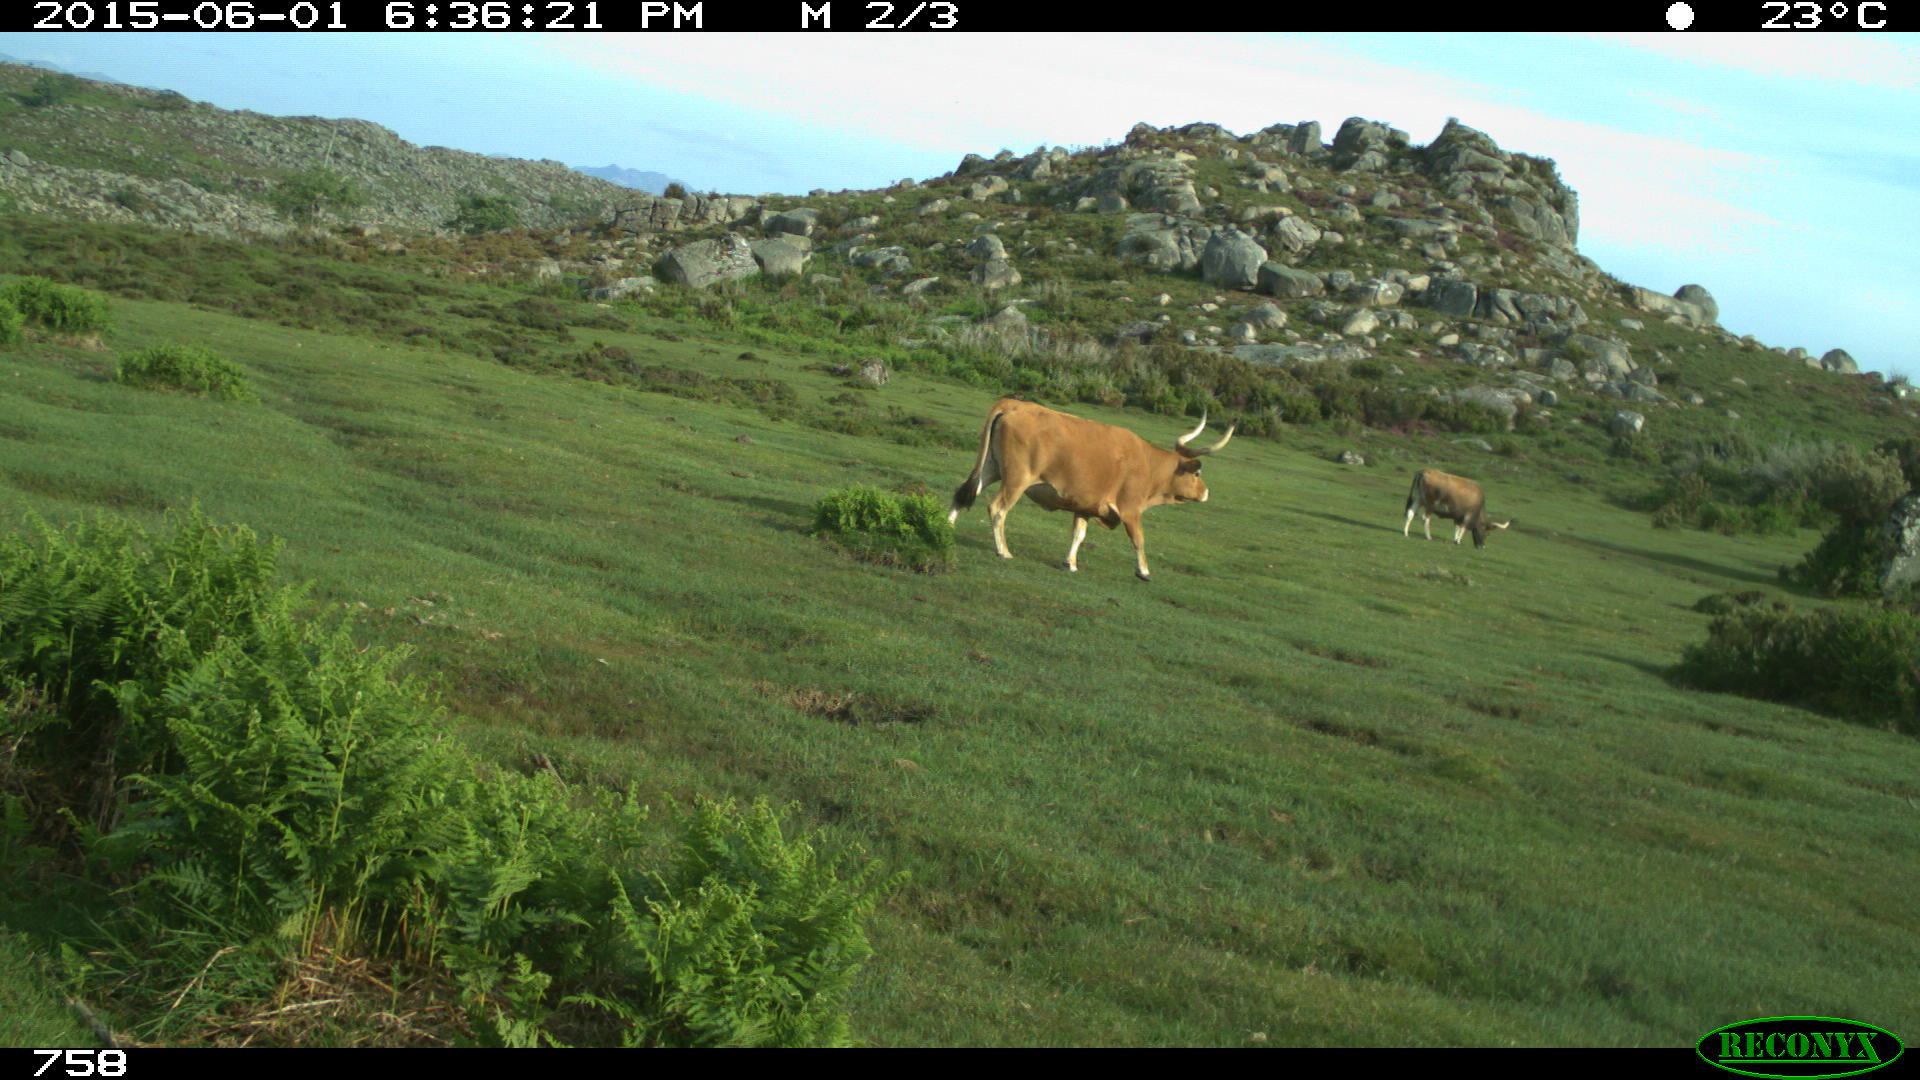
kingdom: Animalia
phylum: Chordata
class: Mammalia
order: Artiodactyla
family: Bovidae
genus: Bos
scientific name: Bos taurus
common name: Domesticated cattle
